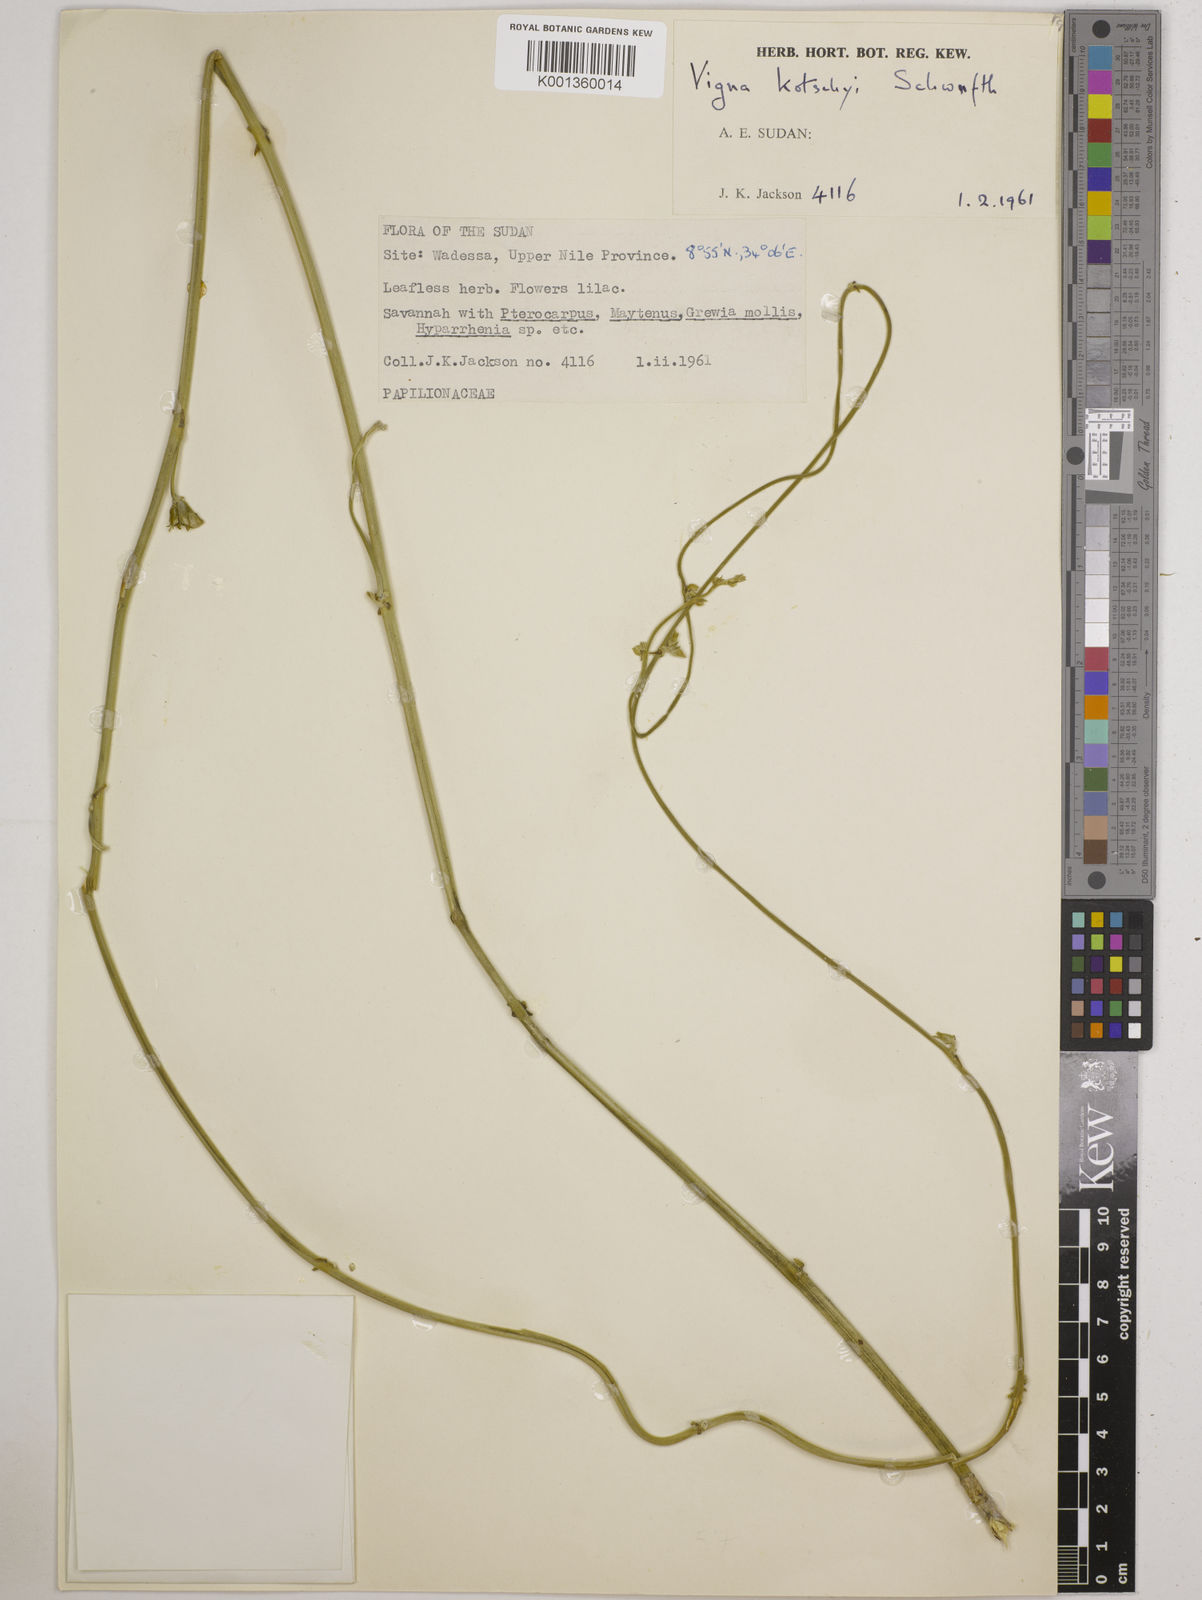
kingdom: Plantae
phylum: Tracheophyta
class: Magnoliopsida
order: Fabales
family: Fabaceae
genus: Vigna
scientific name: Vigna
